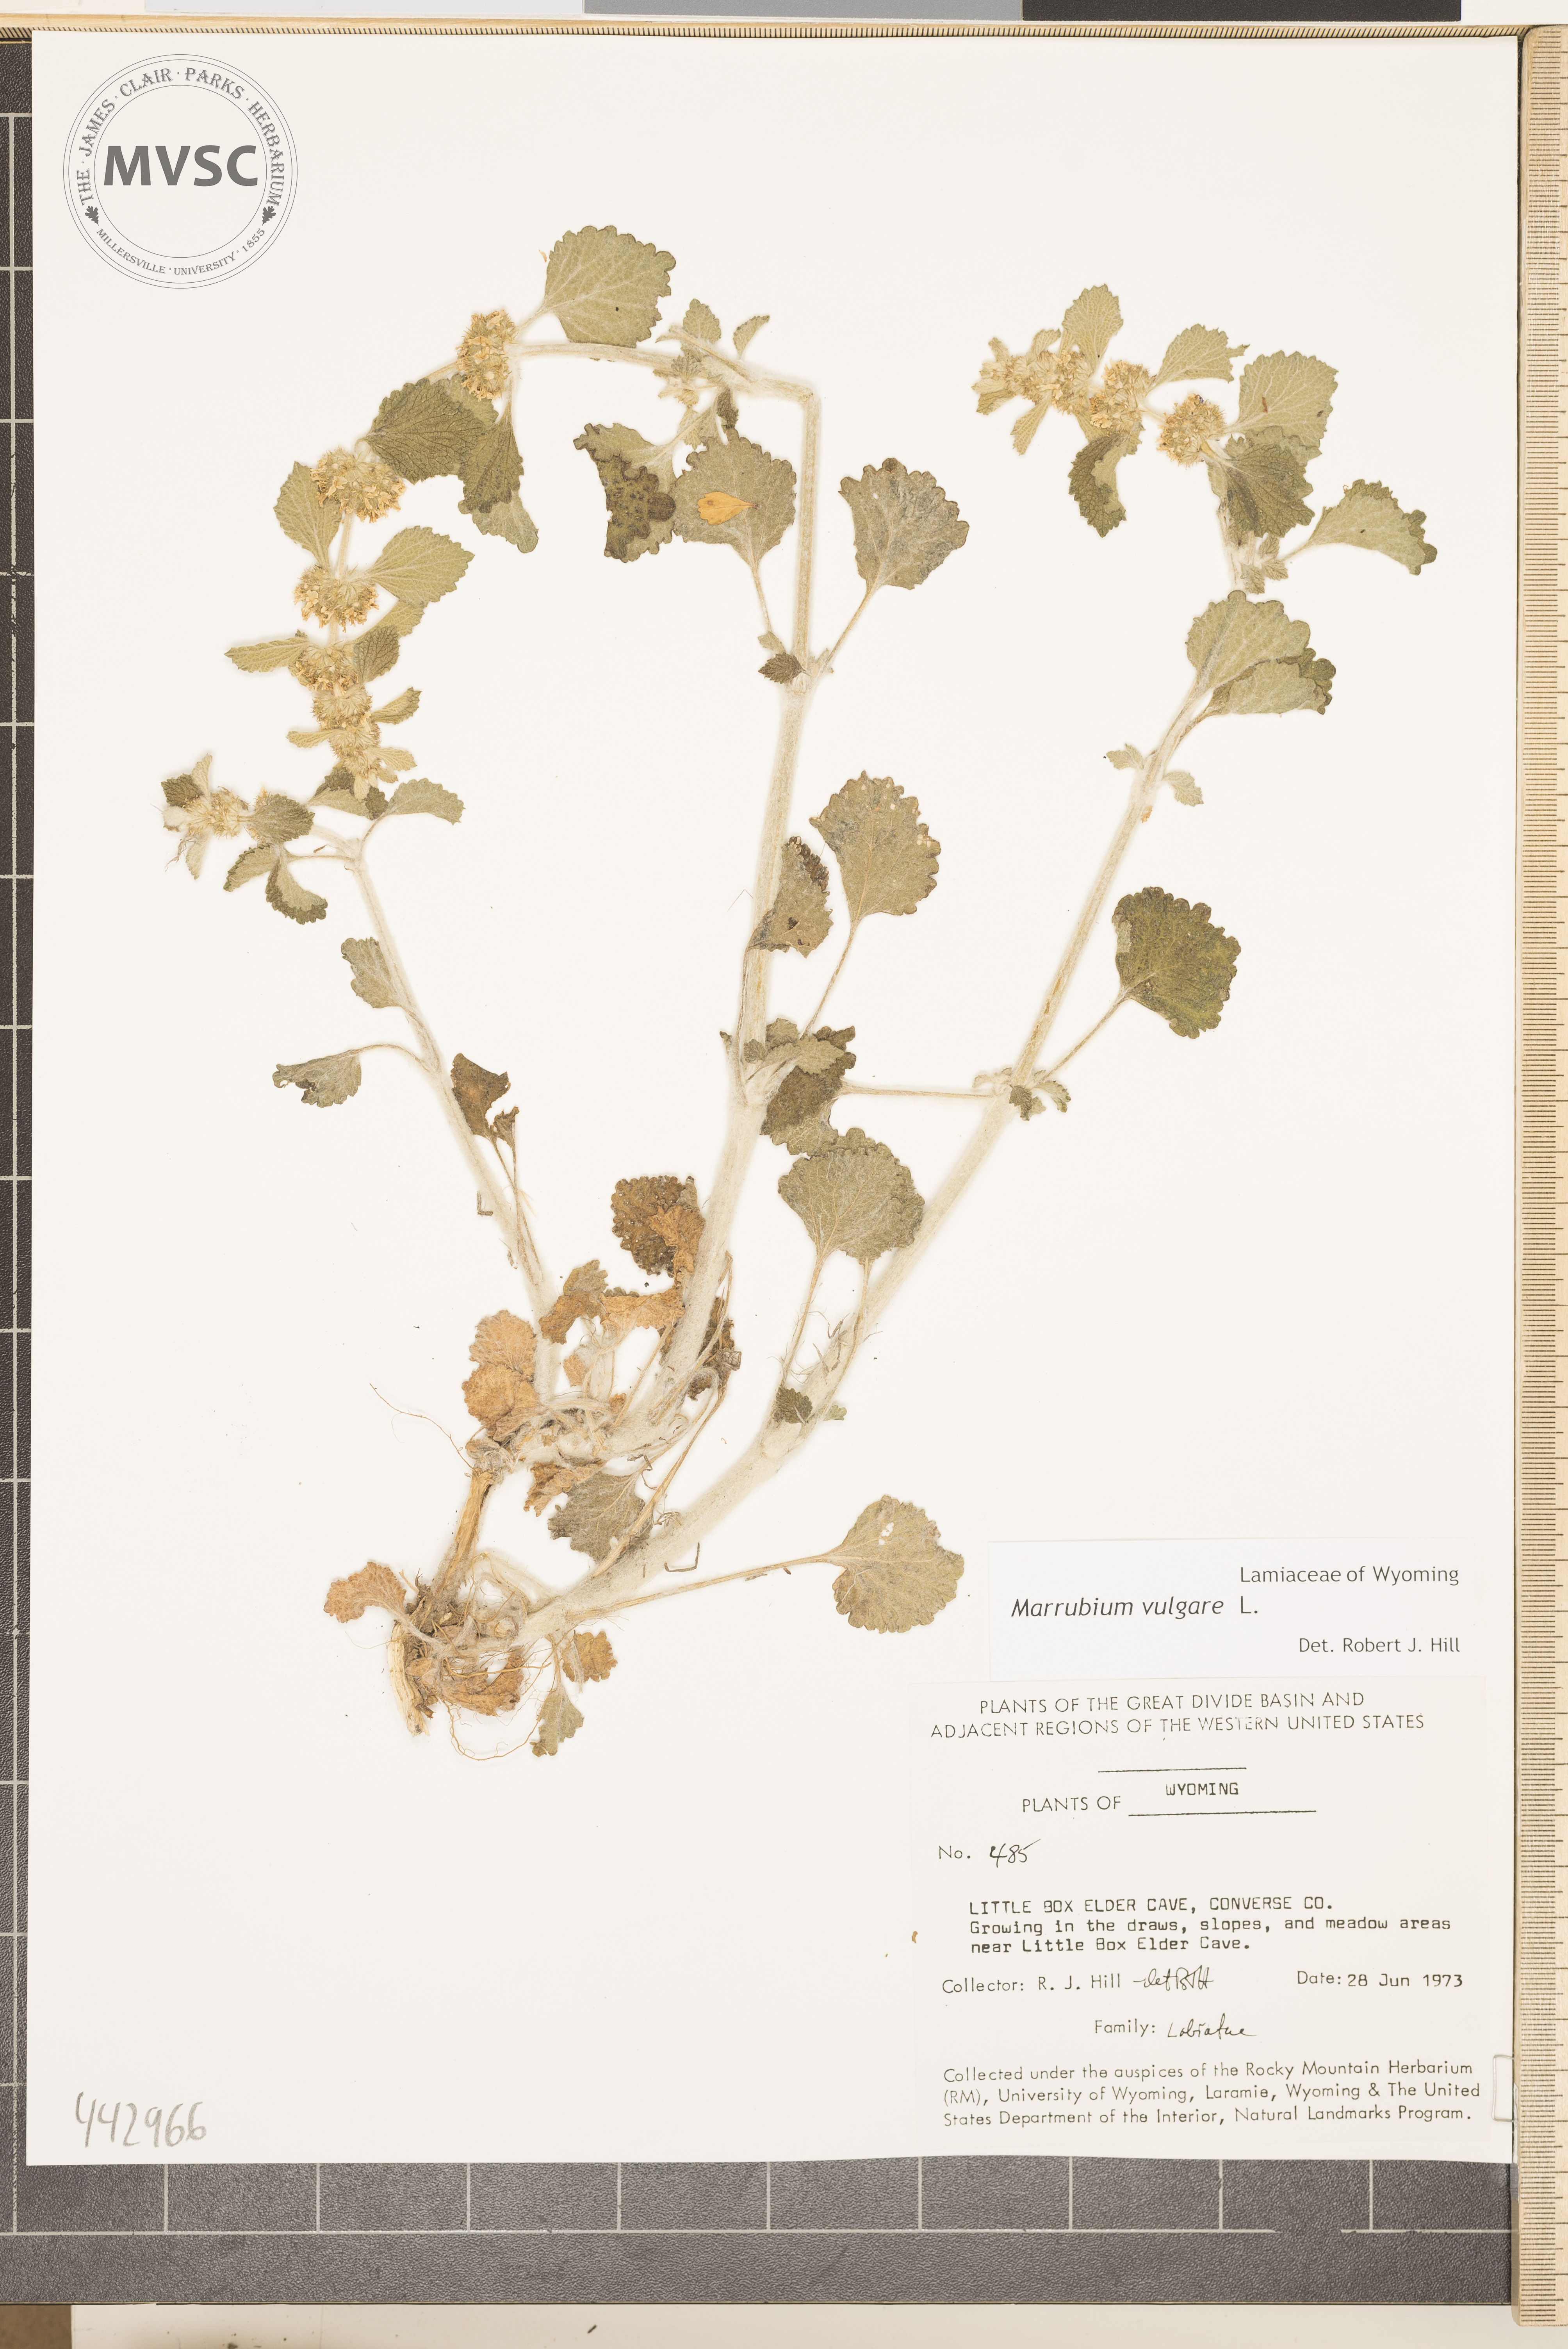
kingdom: Plantae
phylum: Tracheophyta
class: Magnoliopsida
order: Lamiales
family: Lamiaceae
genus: Marrubium
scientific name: Marrubium vulgare
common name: Horehound
